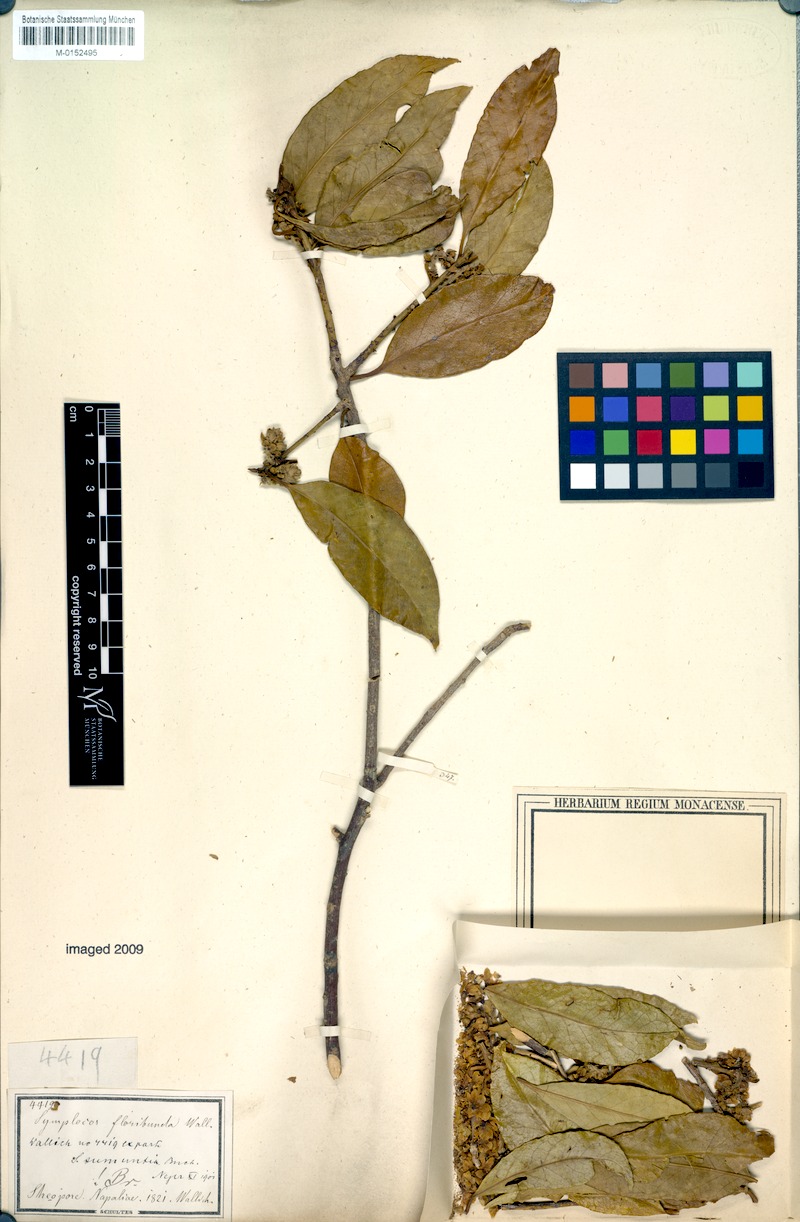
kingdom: Plantae
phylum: Tracheophyta
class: Magnoliopsida
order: Ericales
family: Symplocaceae
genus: Symplocos
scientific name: Symplocos sumuntia
